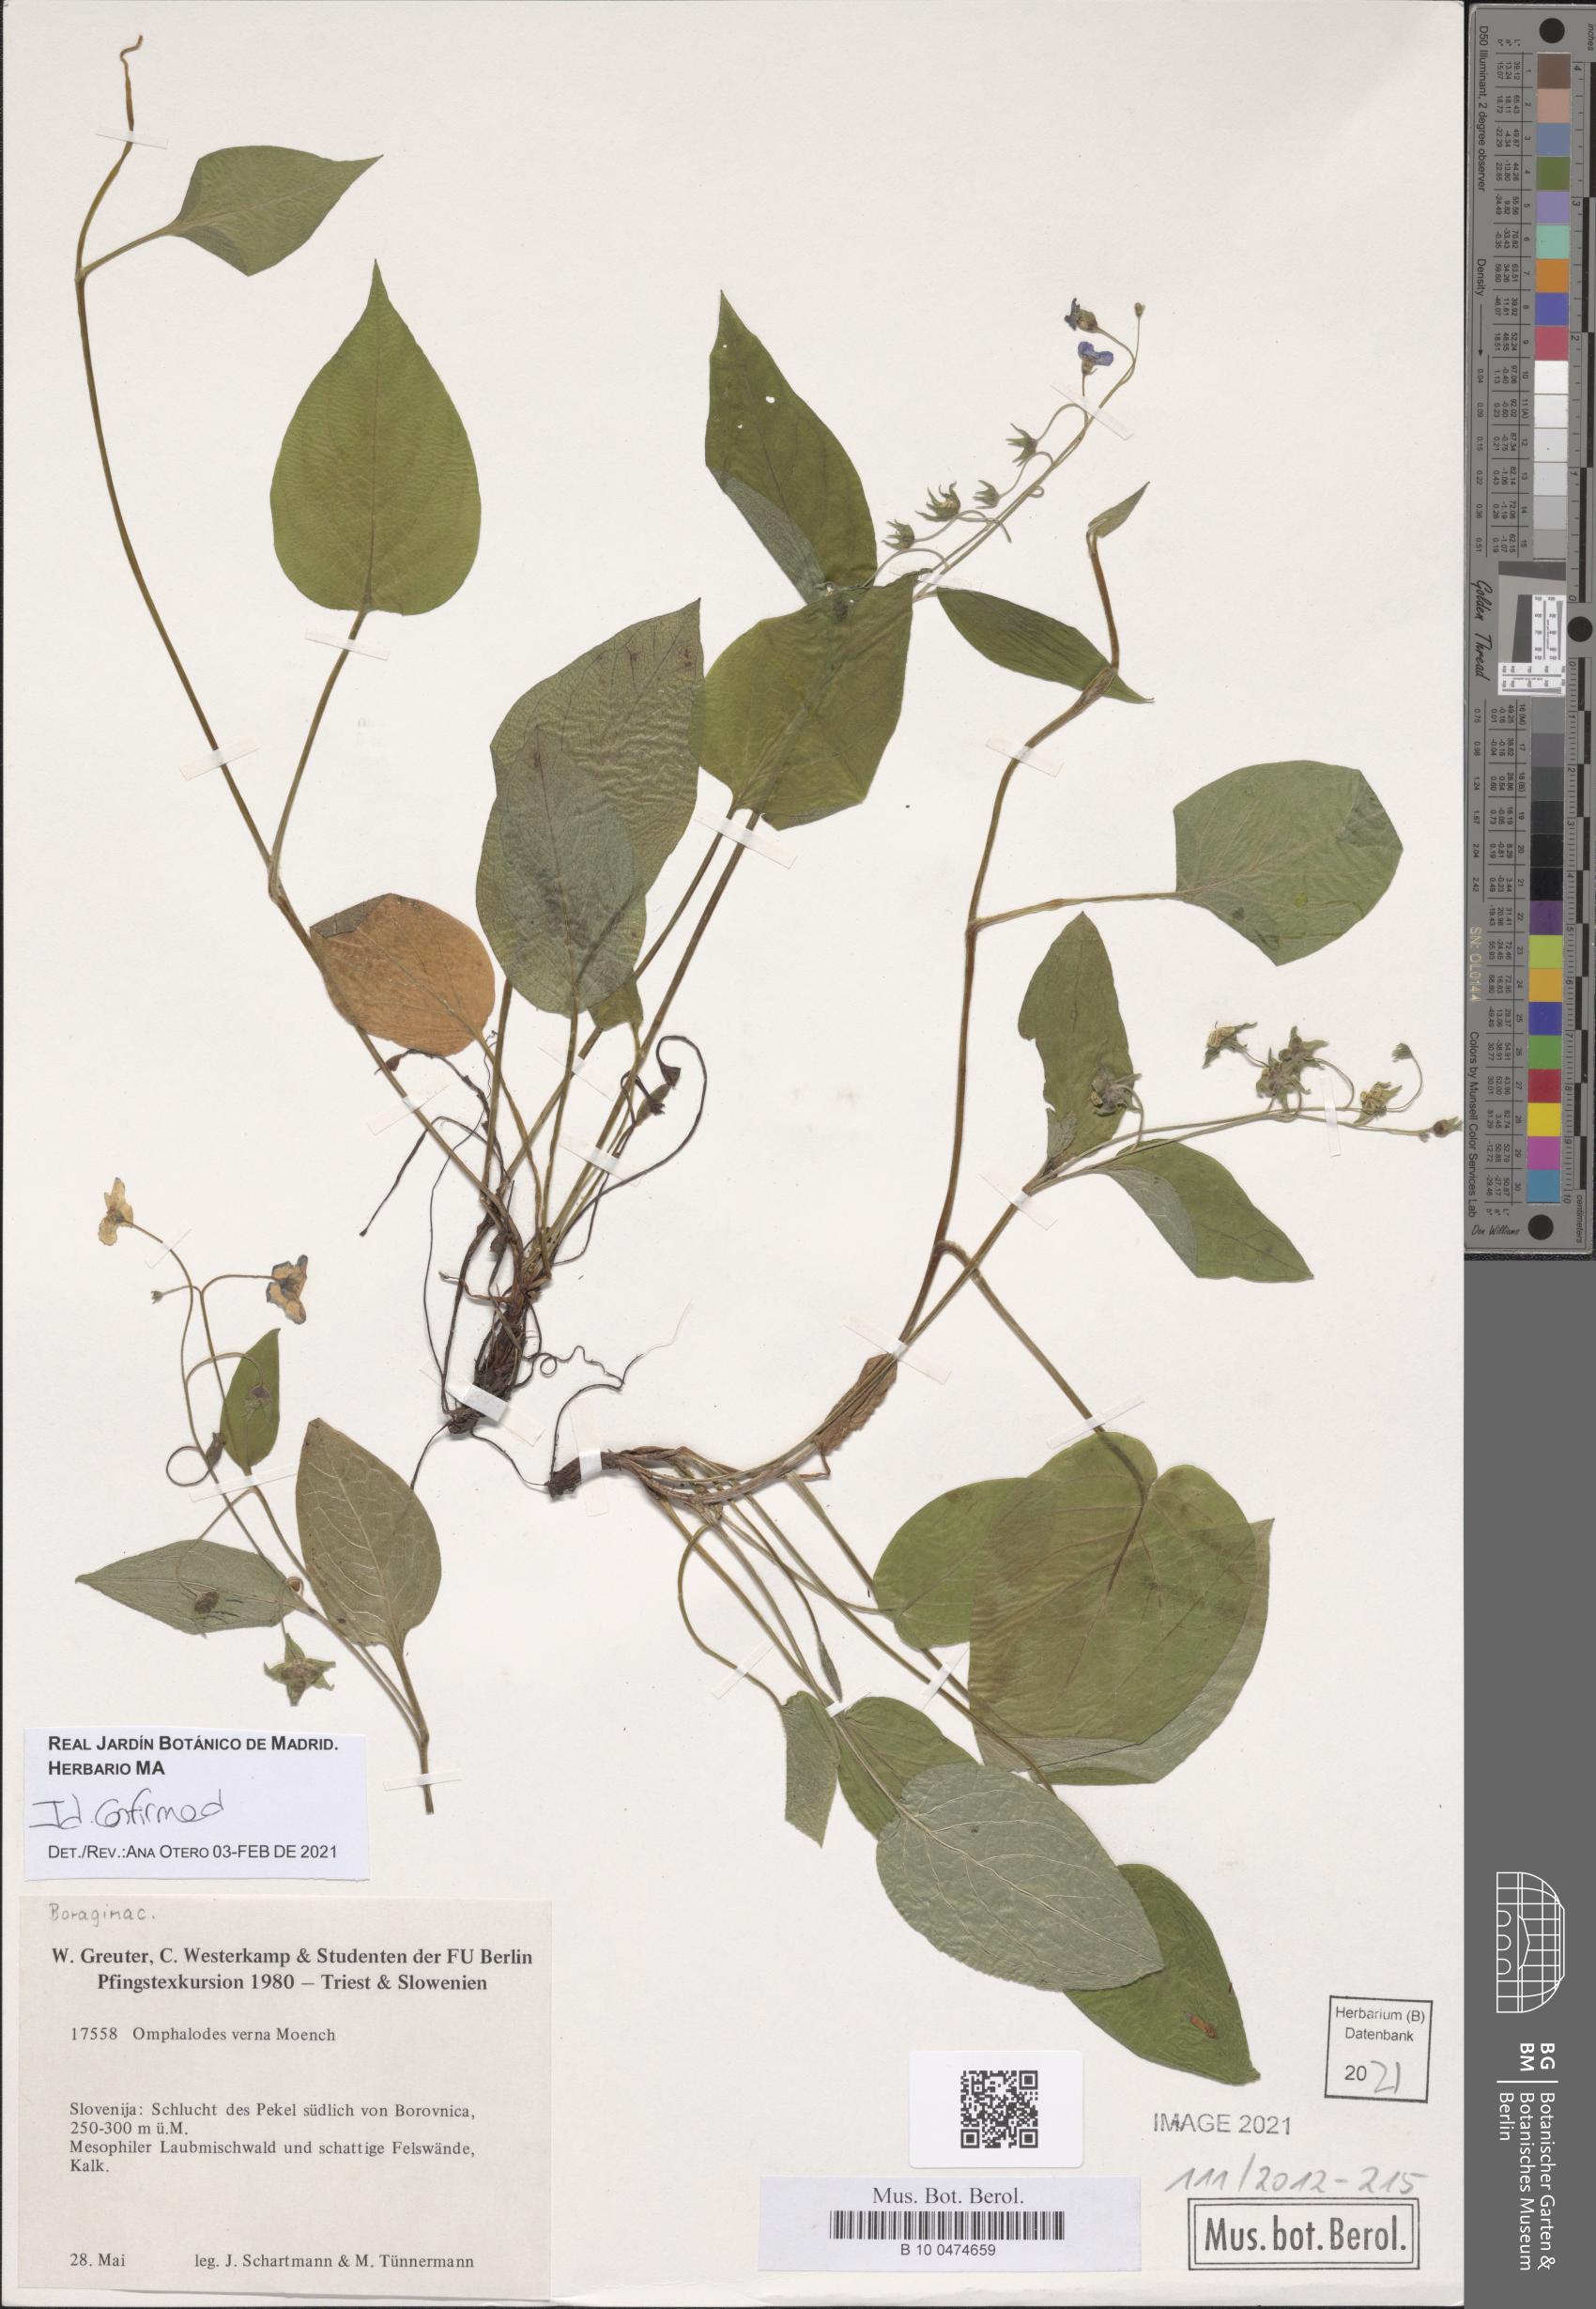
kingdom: Plantae
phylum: Tracheophyta
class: Magnoliopsida
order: Boraginales
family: Boraginaceae
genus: Omphalodes
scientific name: Omphalodes verna
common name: Blue-eyed-mary
